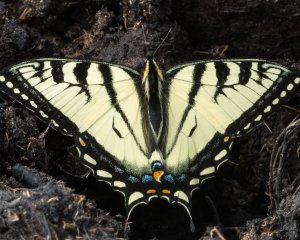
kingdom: Animalia
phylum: Arthropoda
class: Insecta
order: Lepidoptera
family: Papilionidae
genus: Pterourus
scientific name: Pterourus canadensis
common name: Canadian Tiger Swallowtail
